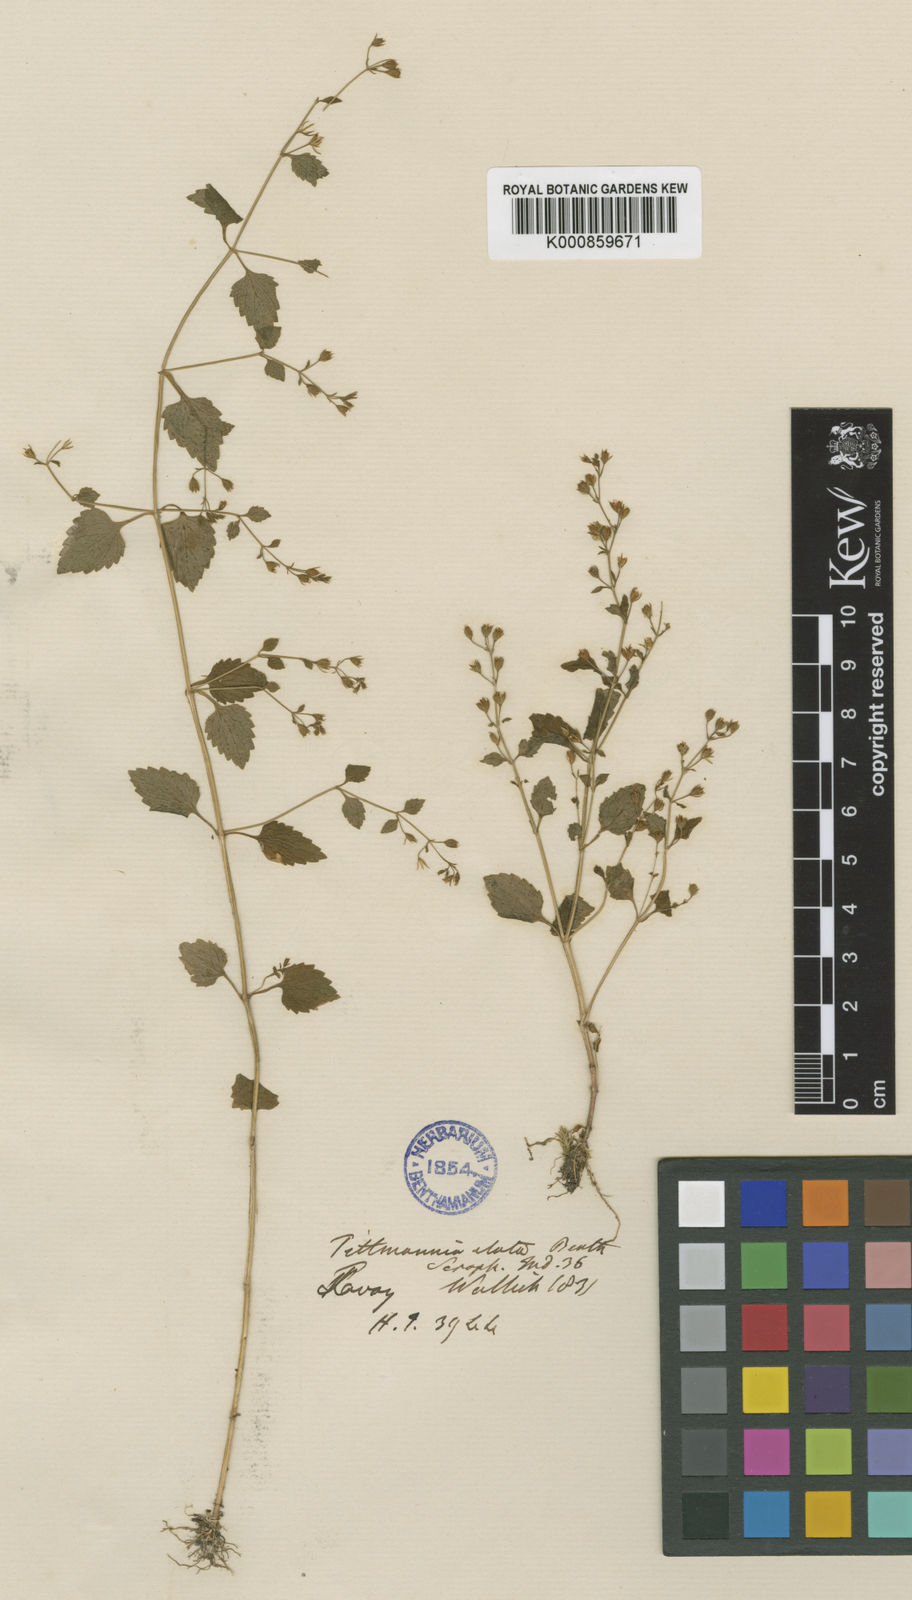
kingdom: Plantae
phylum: Tracheophyta
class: Magnoliopsida
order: Lamiales
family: Linderniaceae
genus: Vandellia
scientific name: Vandellia elata
